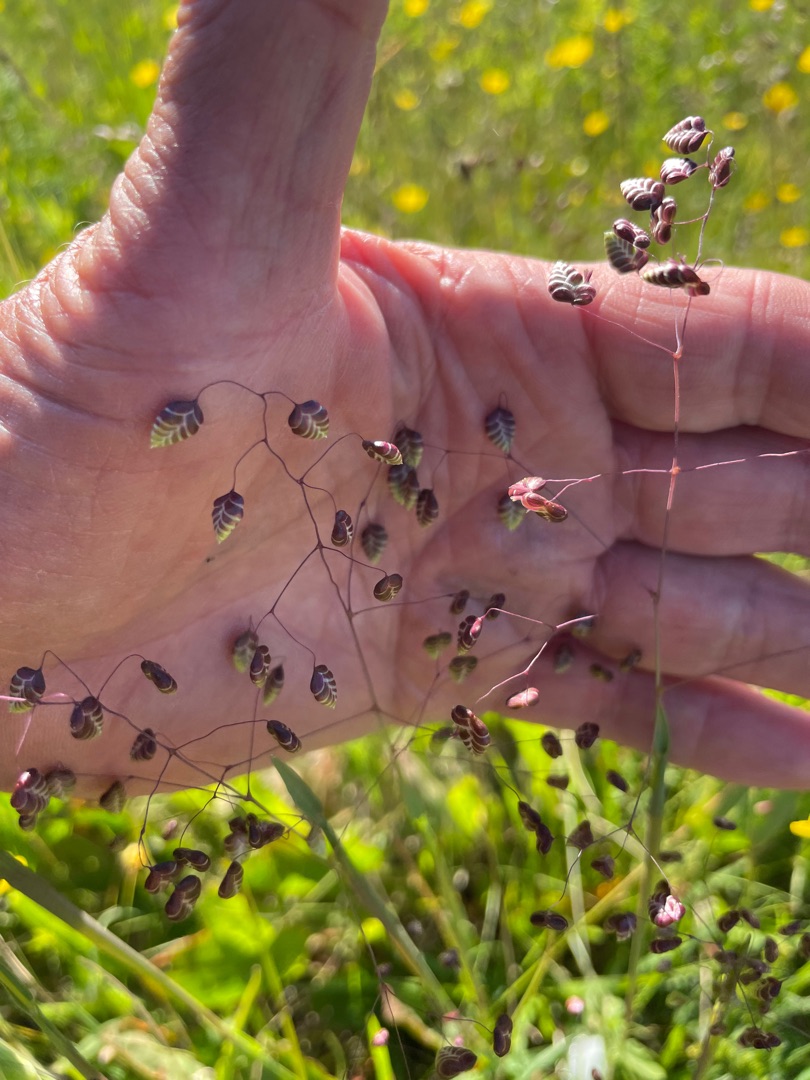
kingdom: Plantae
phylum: Tracheophyta
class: Liliopsida
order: Poales
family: Poaceae
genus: Briza
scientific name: Briza media
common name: Hjertegræs
